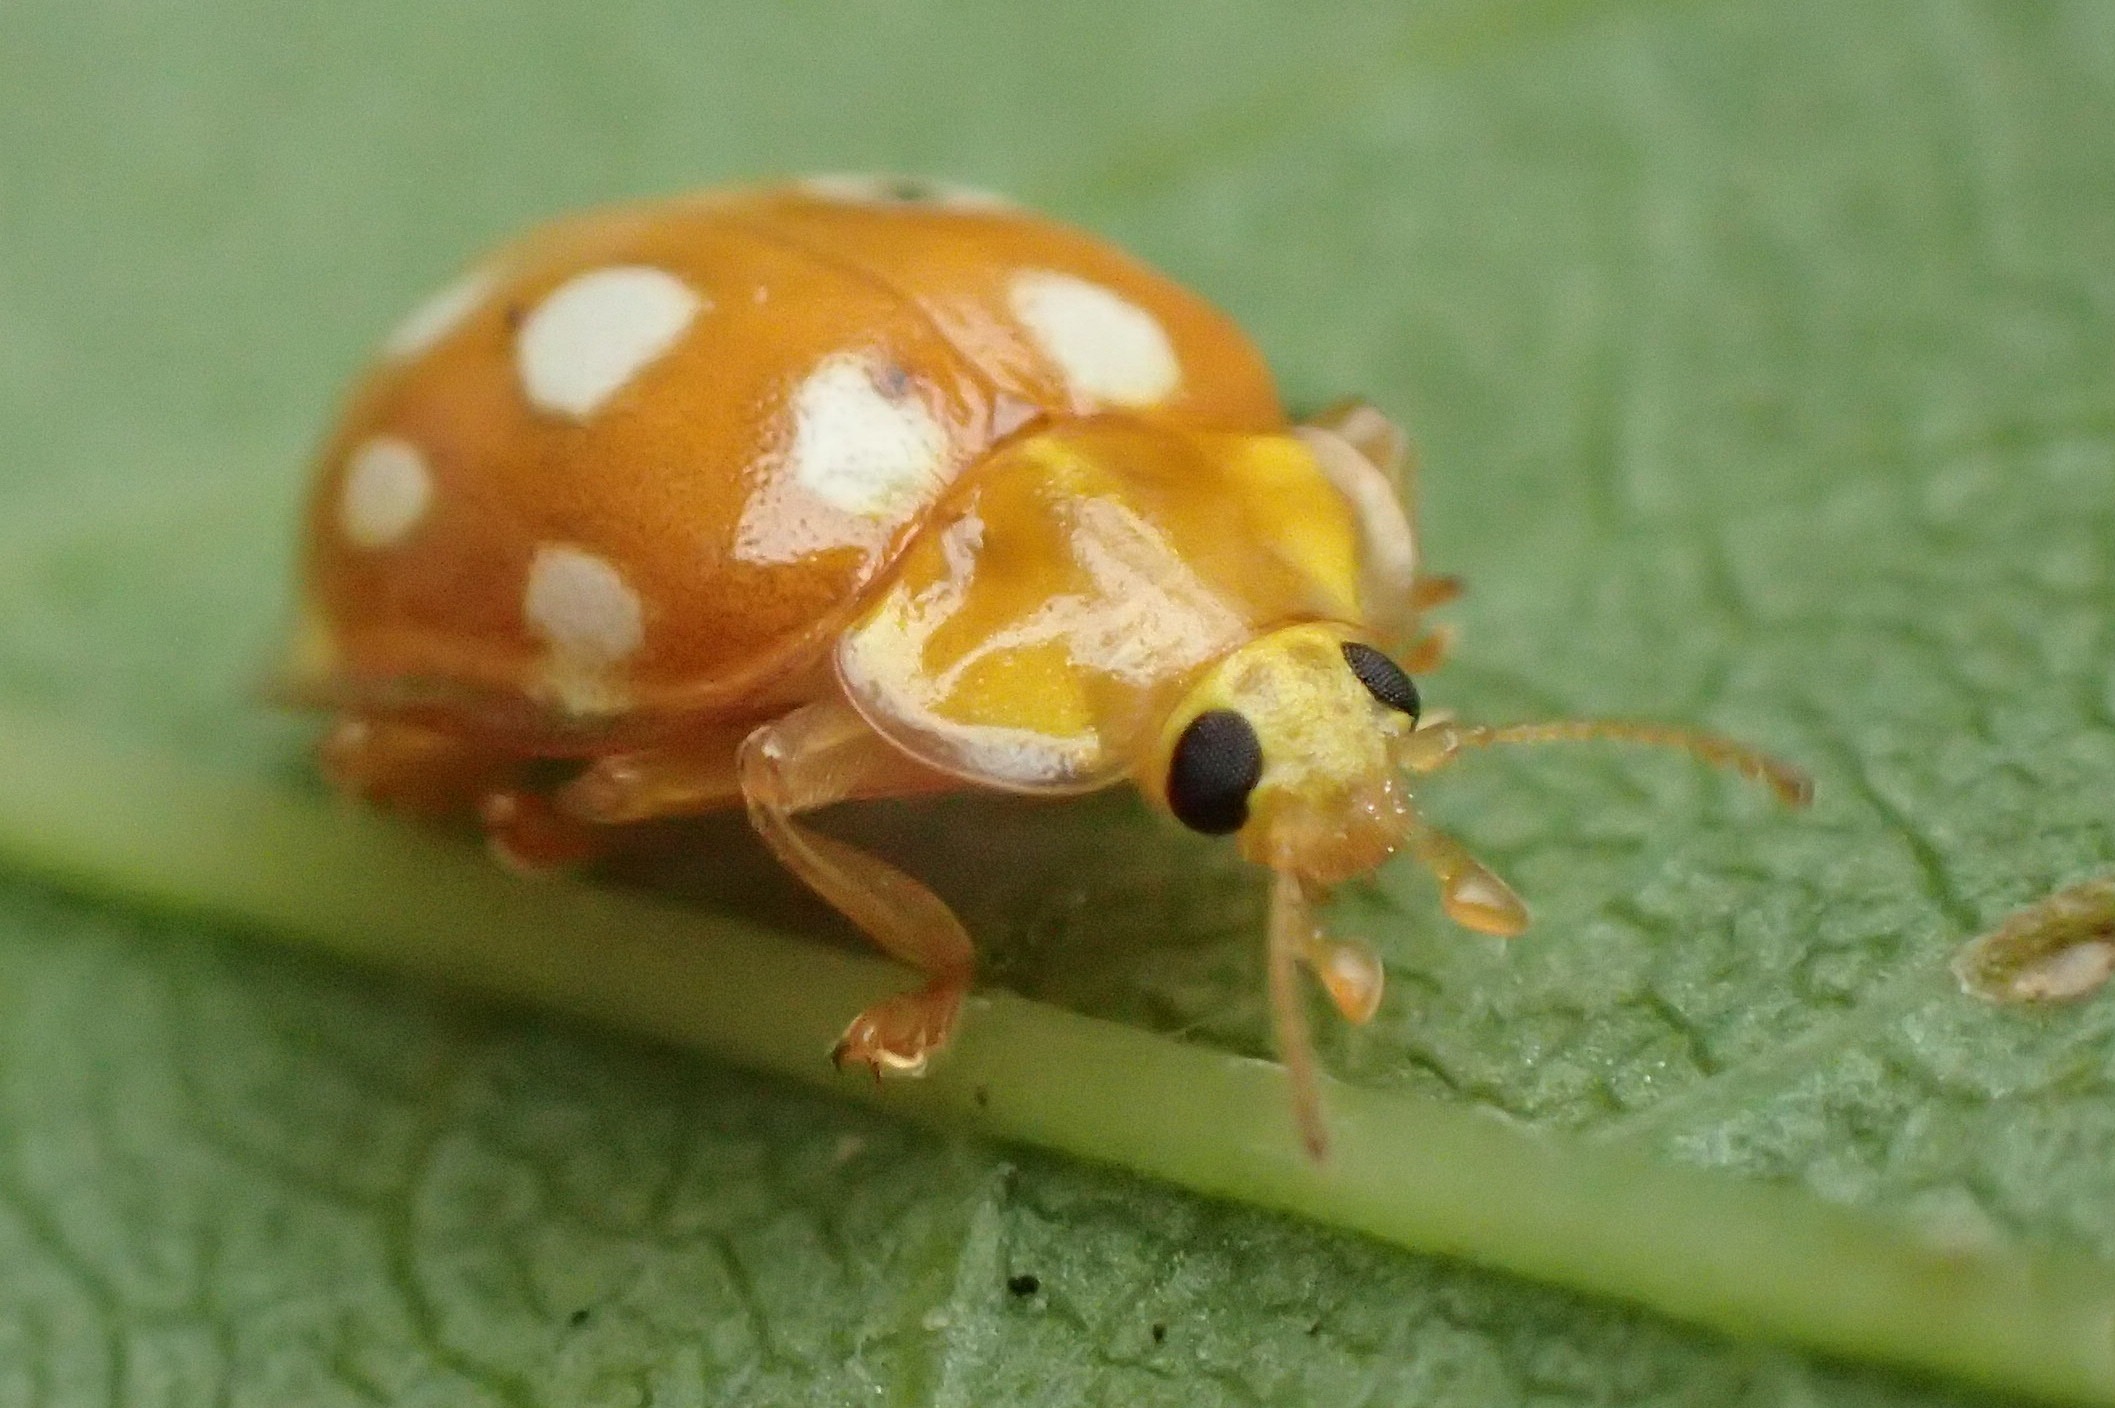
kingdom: Animalia
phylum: Arthropoda
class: Insecta
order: Coleoptera
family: Coccinellidae
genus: Halyzia
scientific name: Halyzia sedecimguttata
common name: Sekstenplettet mariehøne
